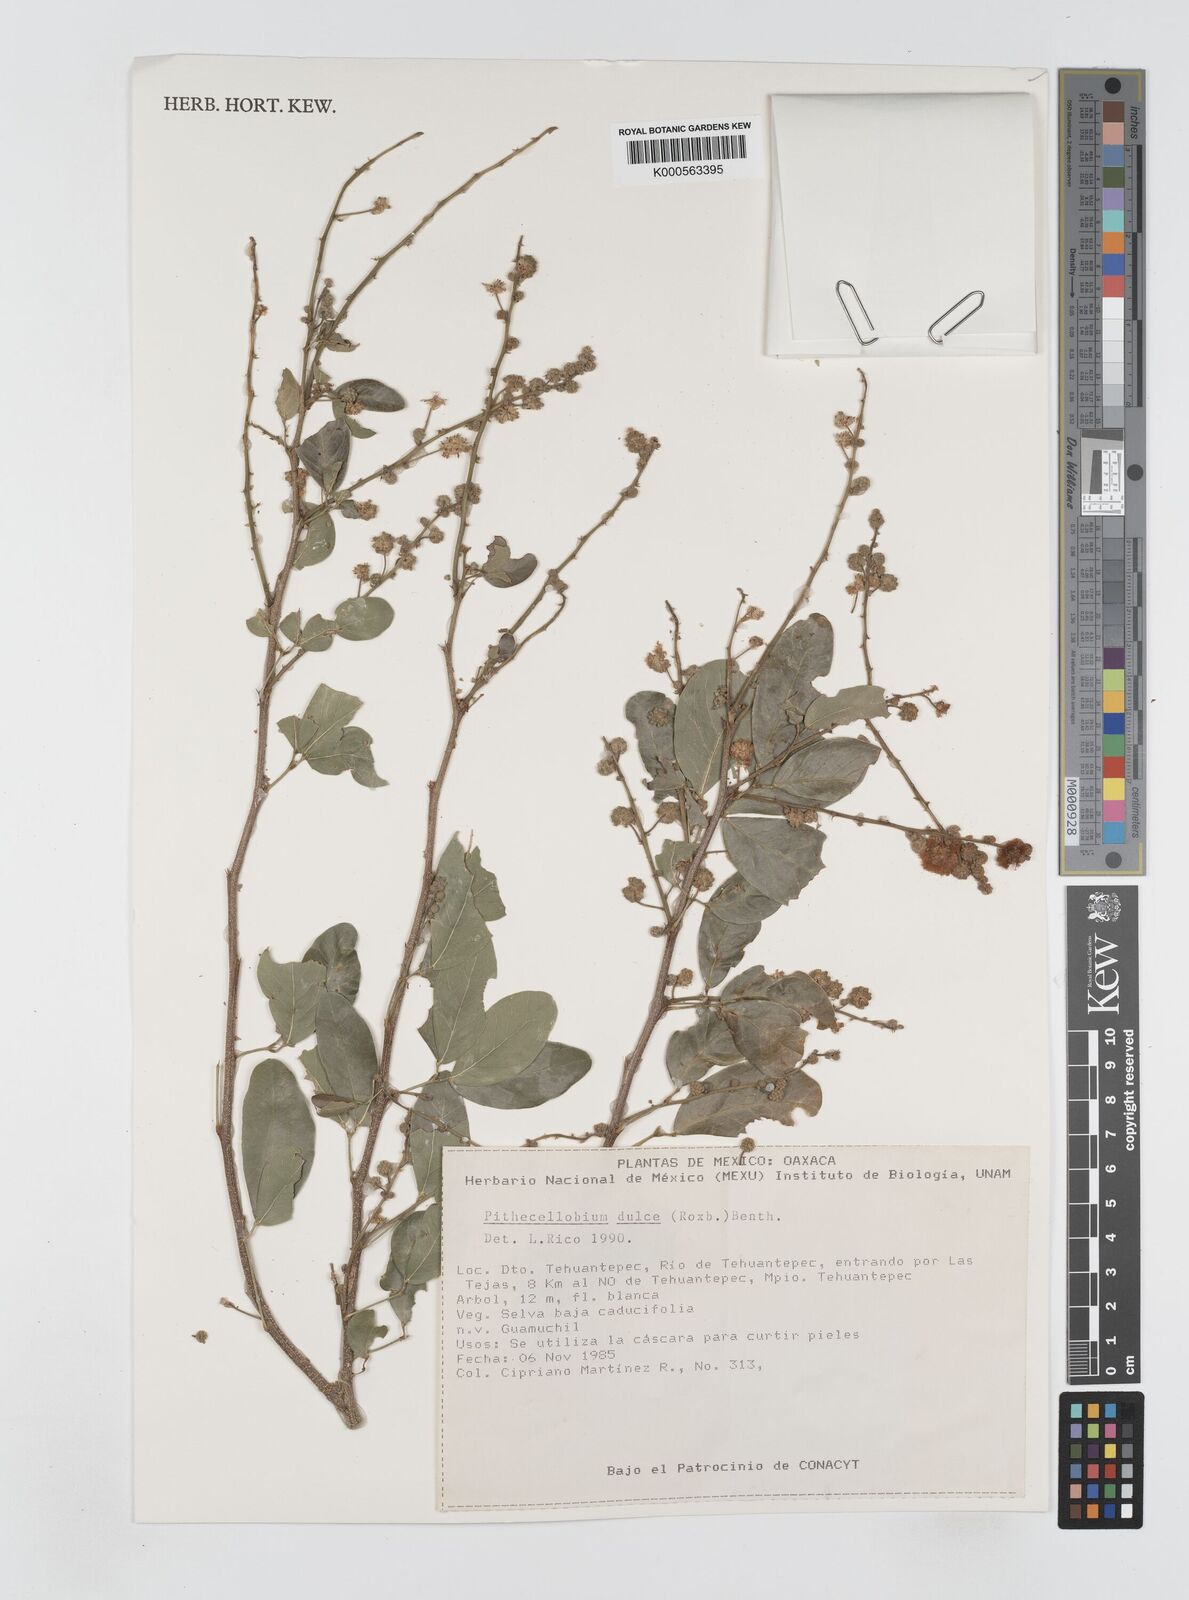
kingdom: Plantae
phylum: Tracheophyta
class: Magnoliopsida
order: Fabales
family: Fabaceae
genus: Pithecellobium
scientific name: Pithecellobium dulce
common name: Monkeypod
